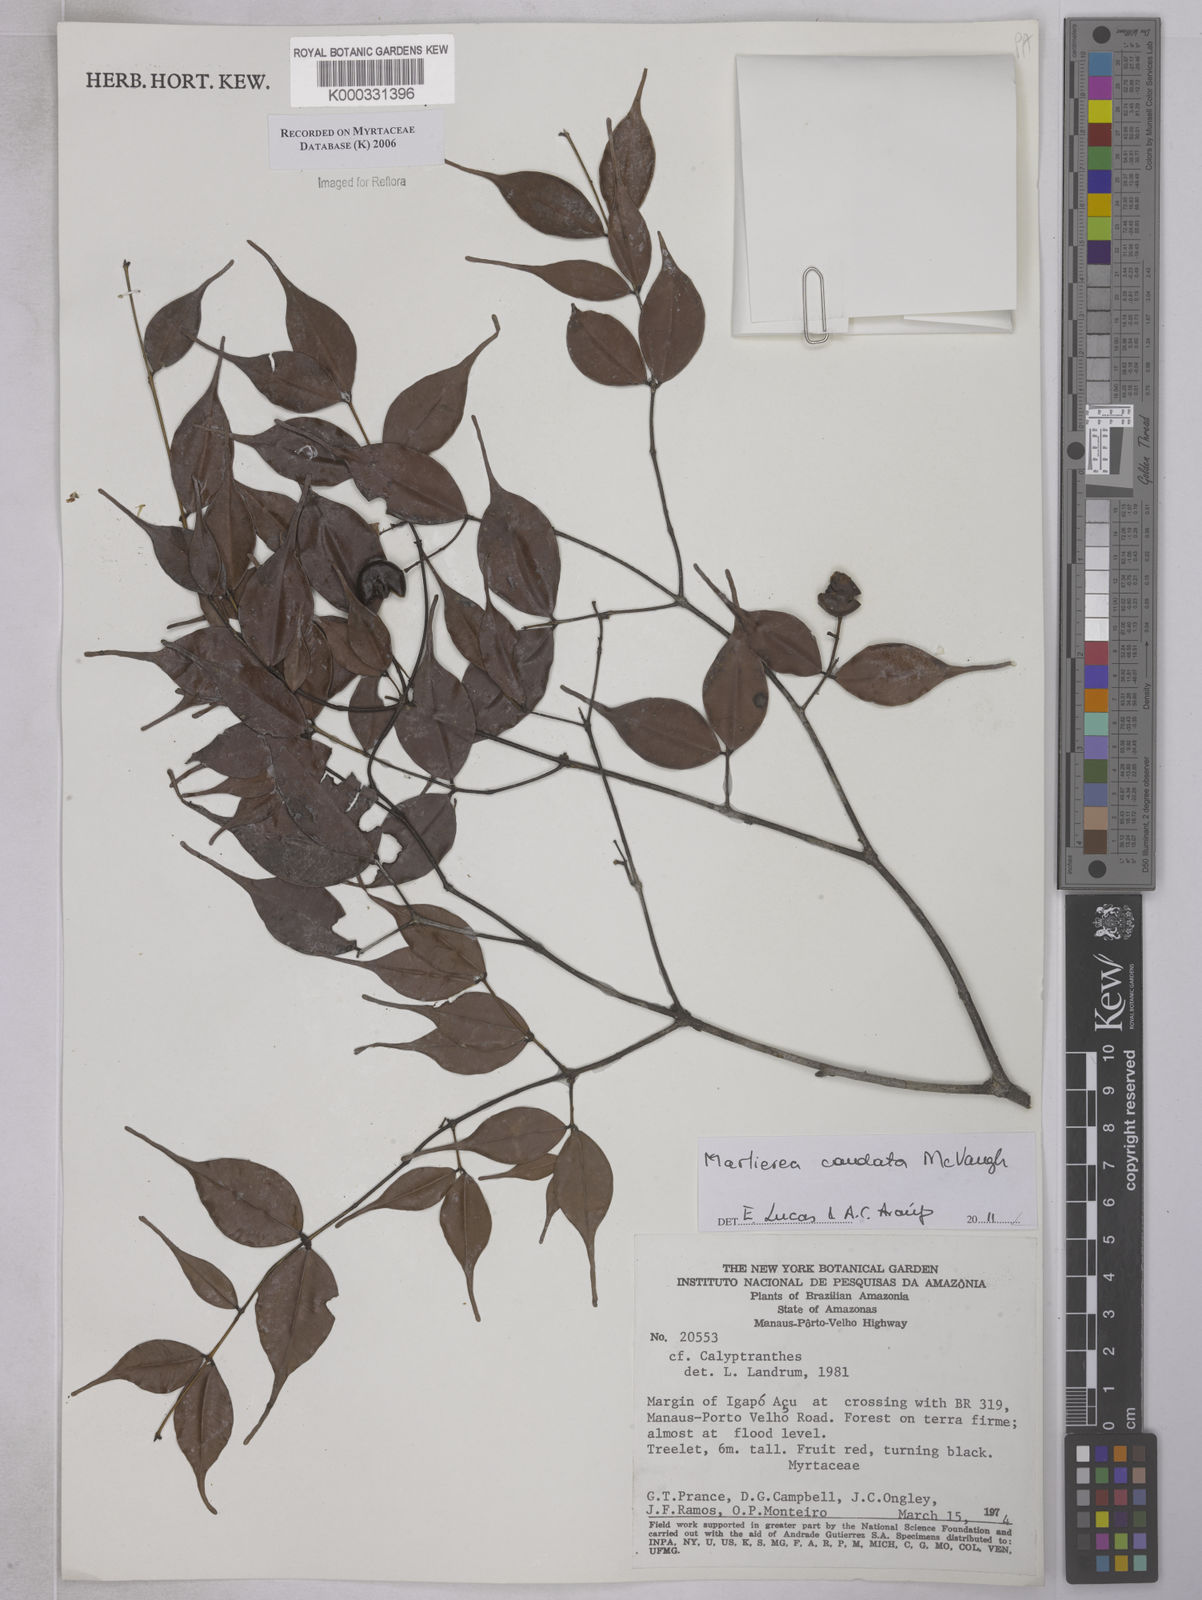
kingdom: Plantae
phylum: Tracheophyta
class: Magnoliopsida
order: Myrtales
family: Myrtaceae
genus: Calyptranthes
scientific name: Calyptranthes
